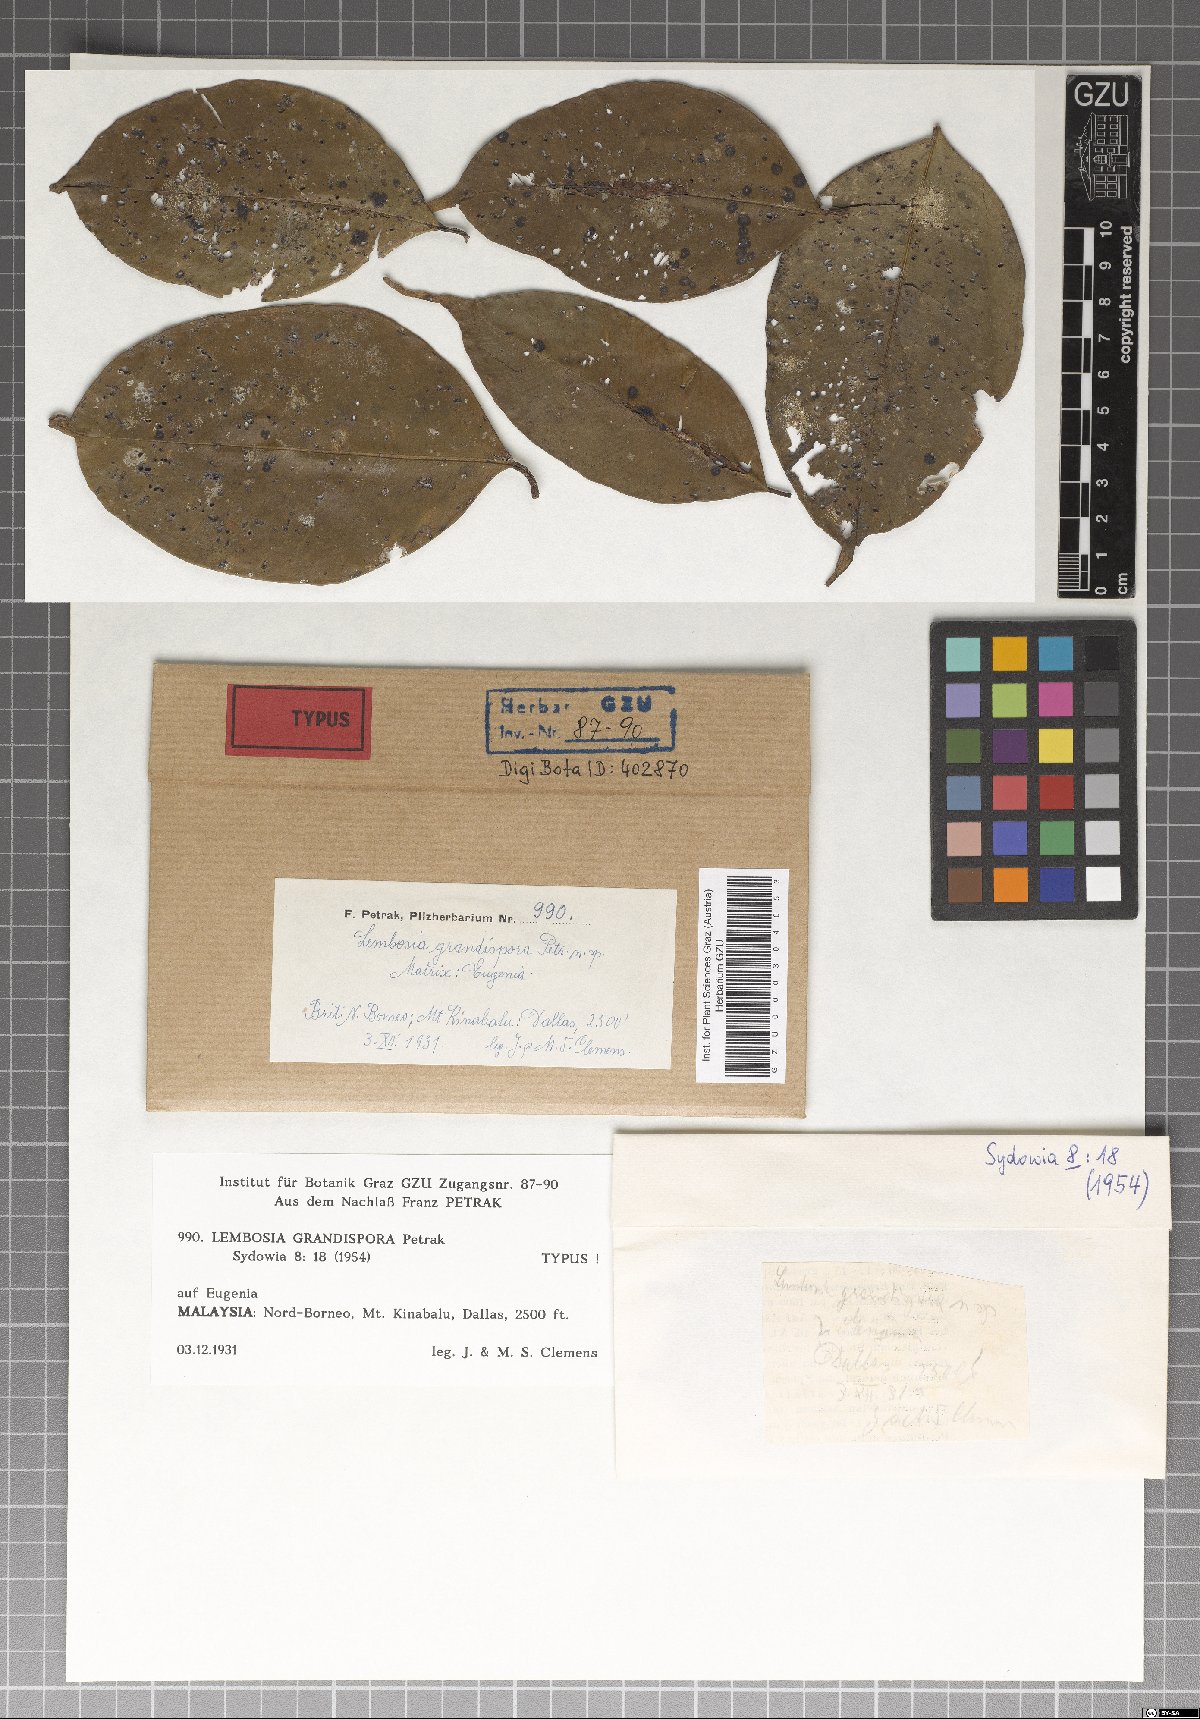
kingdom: Fungi
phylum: Ascomycota
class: Dothideomycetes
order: Asterinales
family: Asterinaceae
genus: Lembosia
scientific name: Lembosia grandispora
